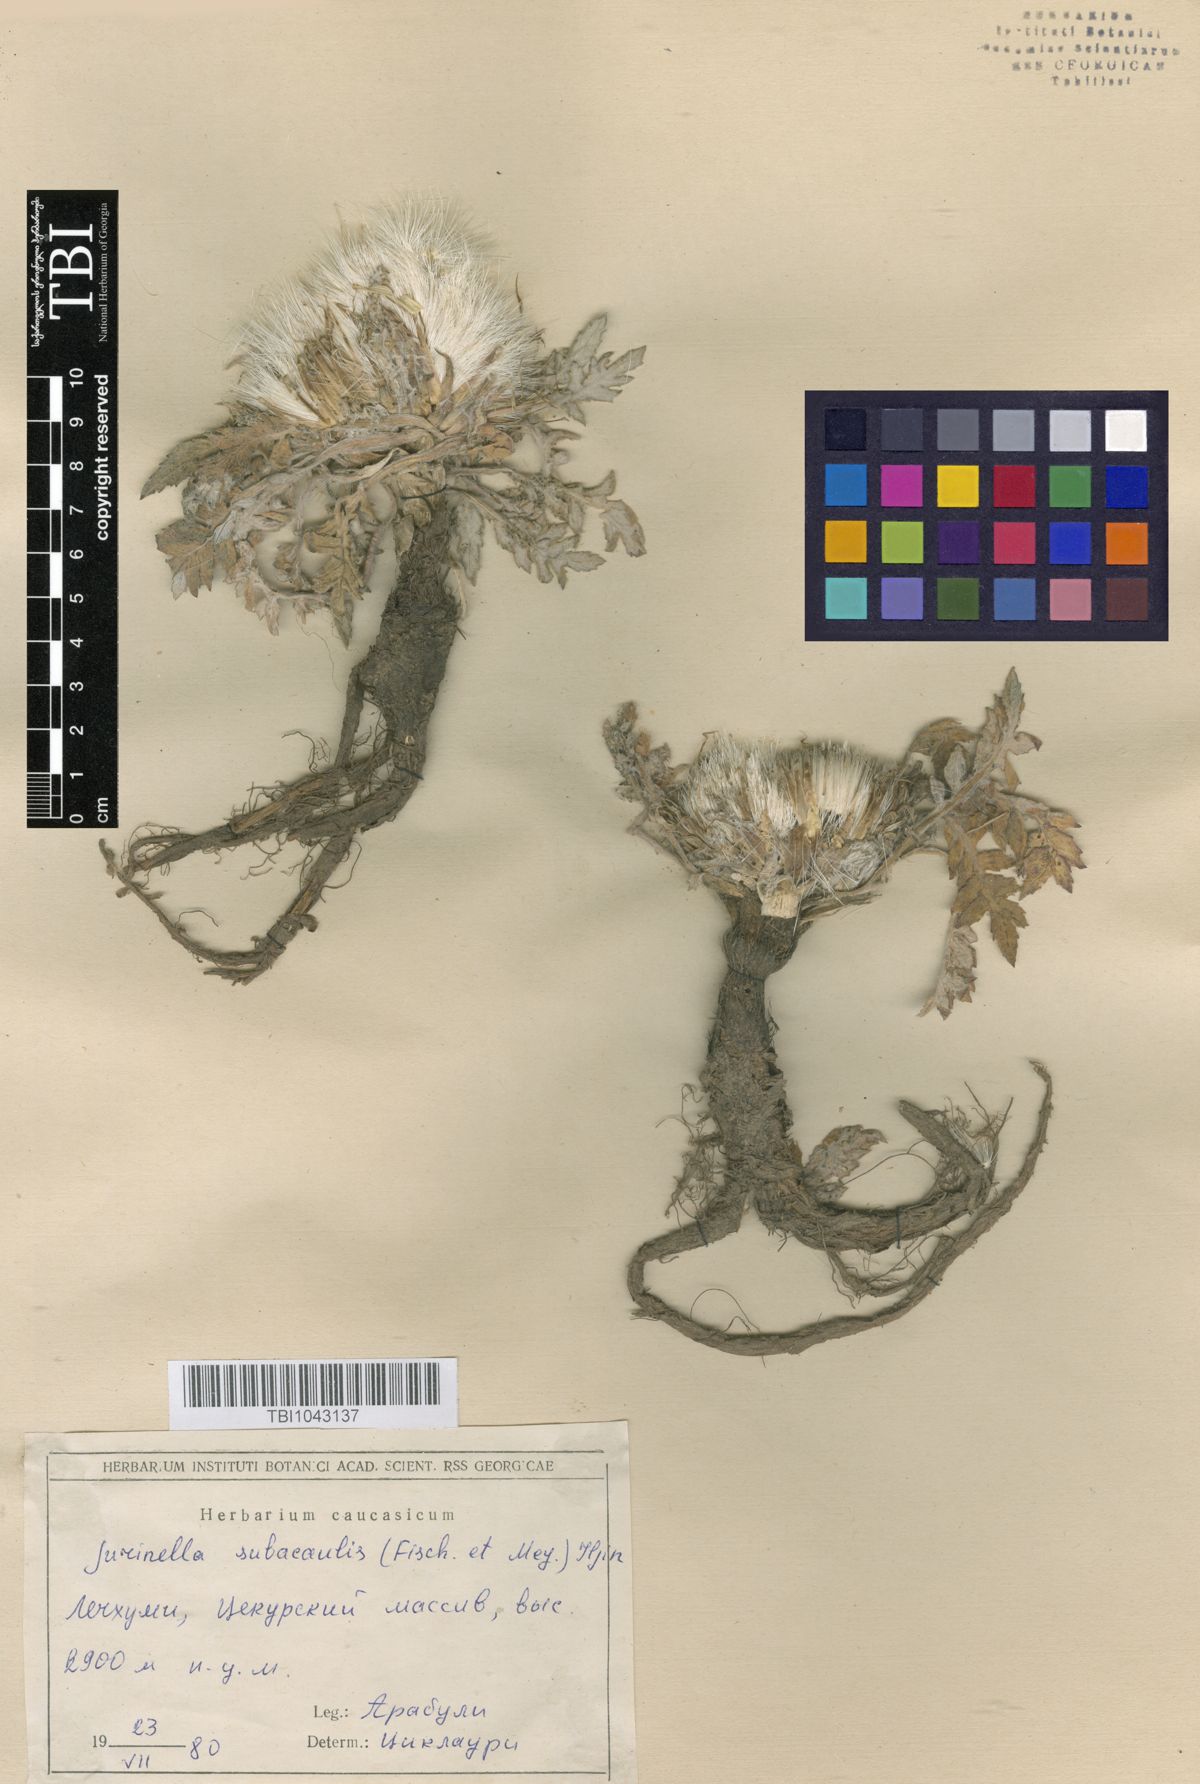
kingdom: Plantae
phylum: Tracheophyta
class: Magnoliopsida
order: Asterales
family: Asteraceae
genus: Jurinea
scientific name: Jurinea moschus
